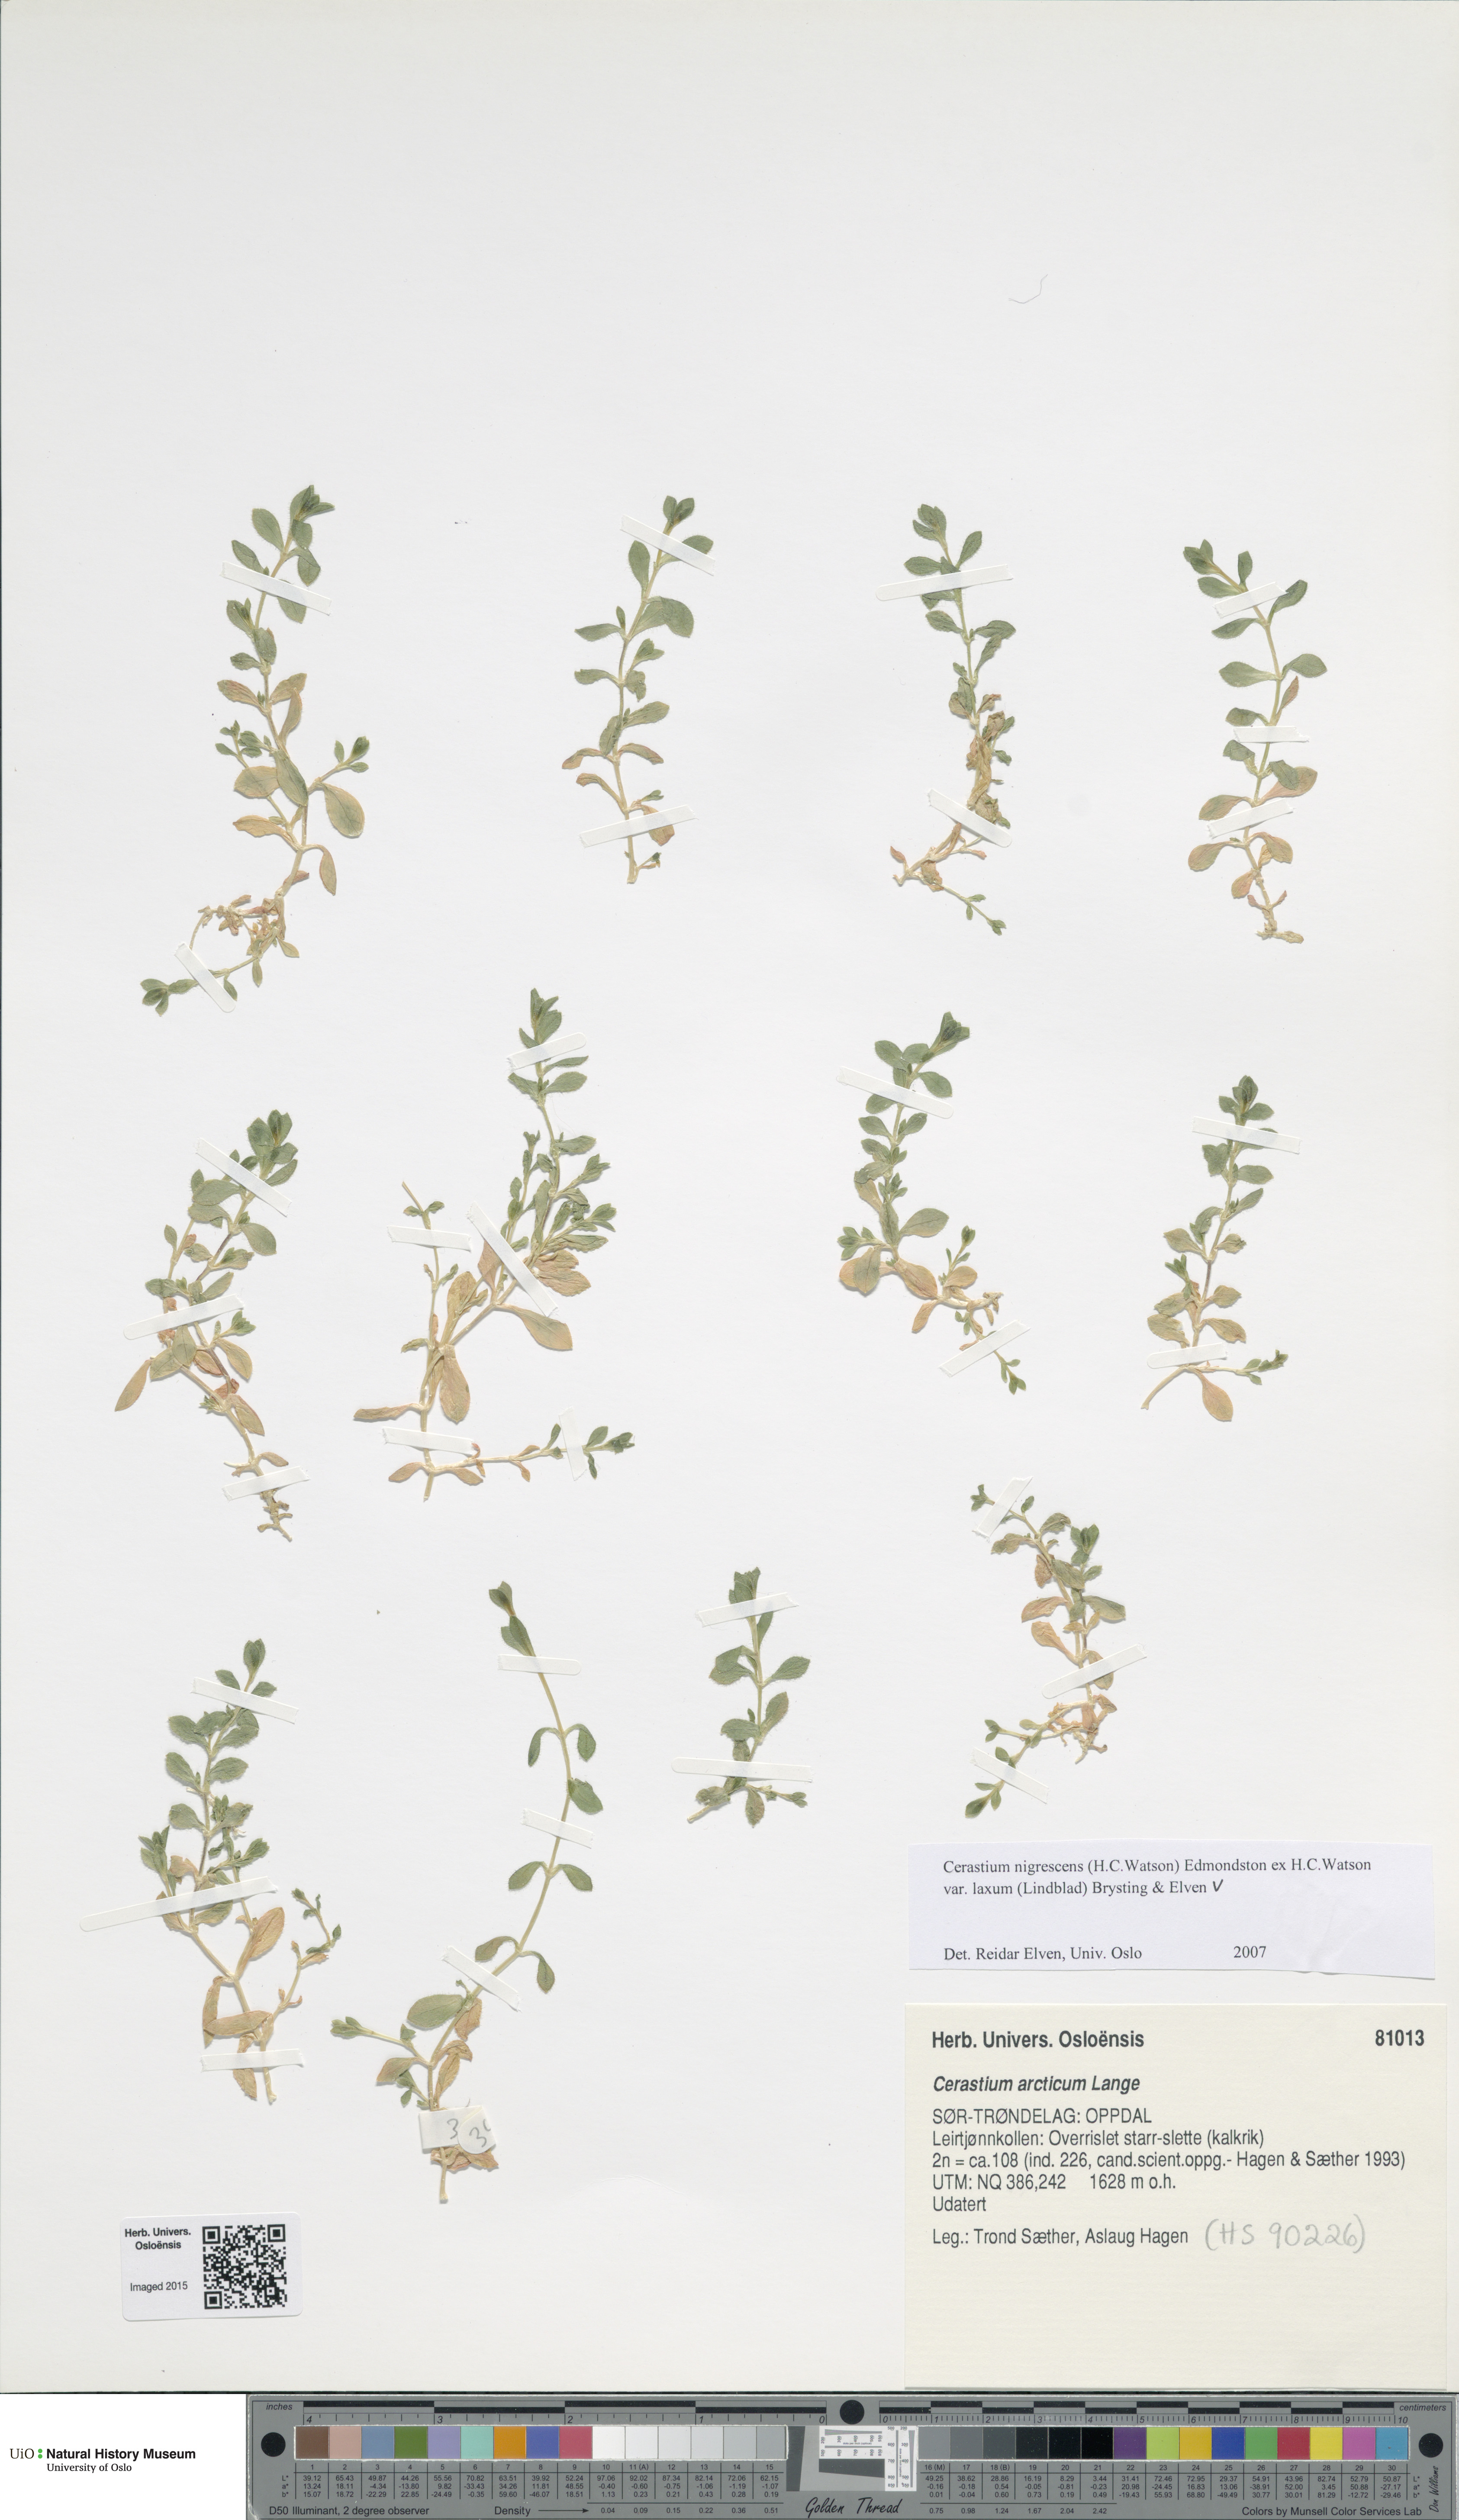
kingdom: Plantae
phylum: Tracheophyta
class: Magnoliopsida
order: Caryophyllales
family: Caryophyllaceae
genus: Cerastium
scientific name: Cerastium nigrescens
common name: Shetland mouse-ear
